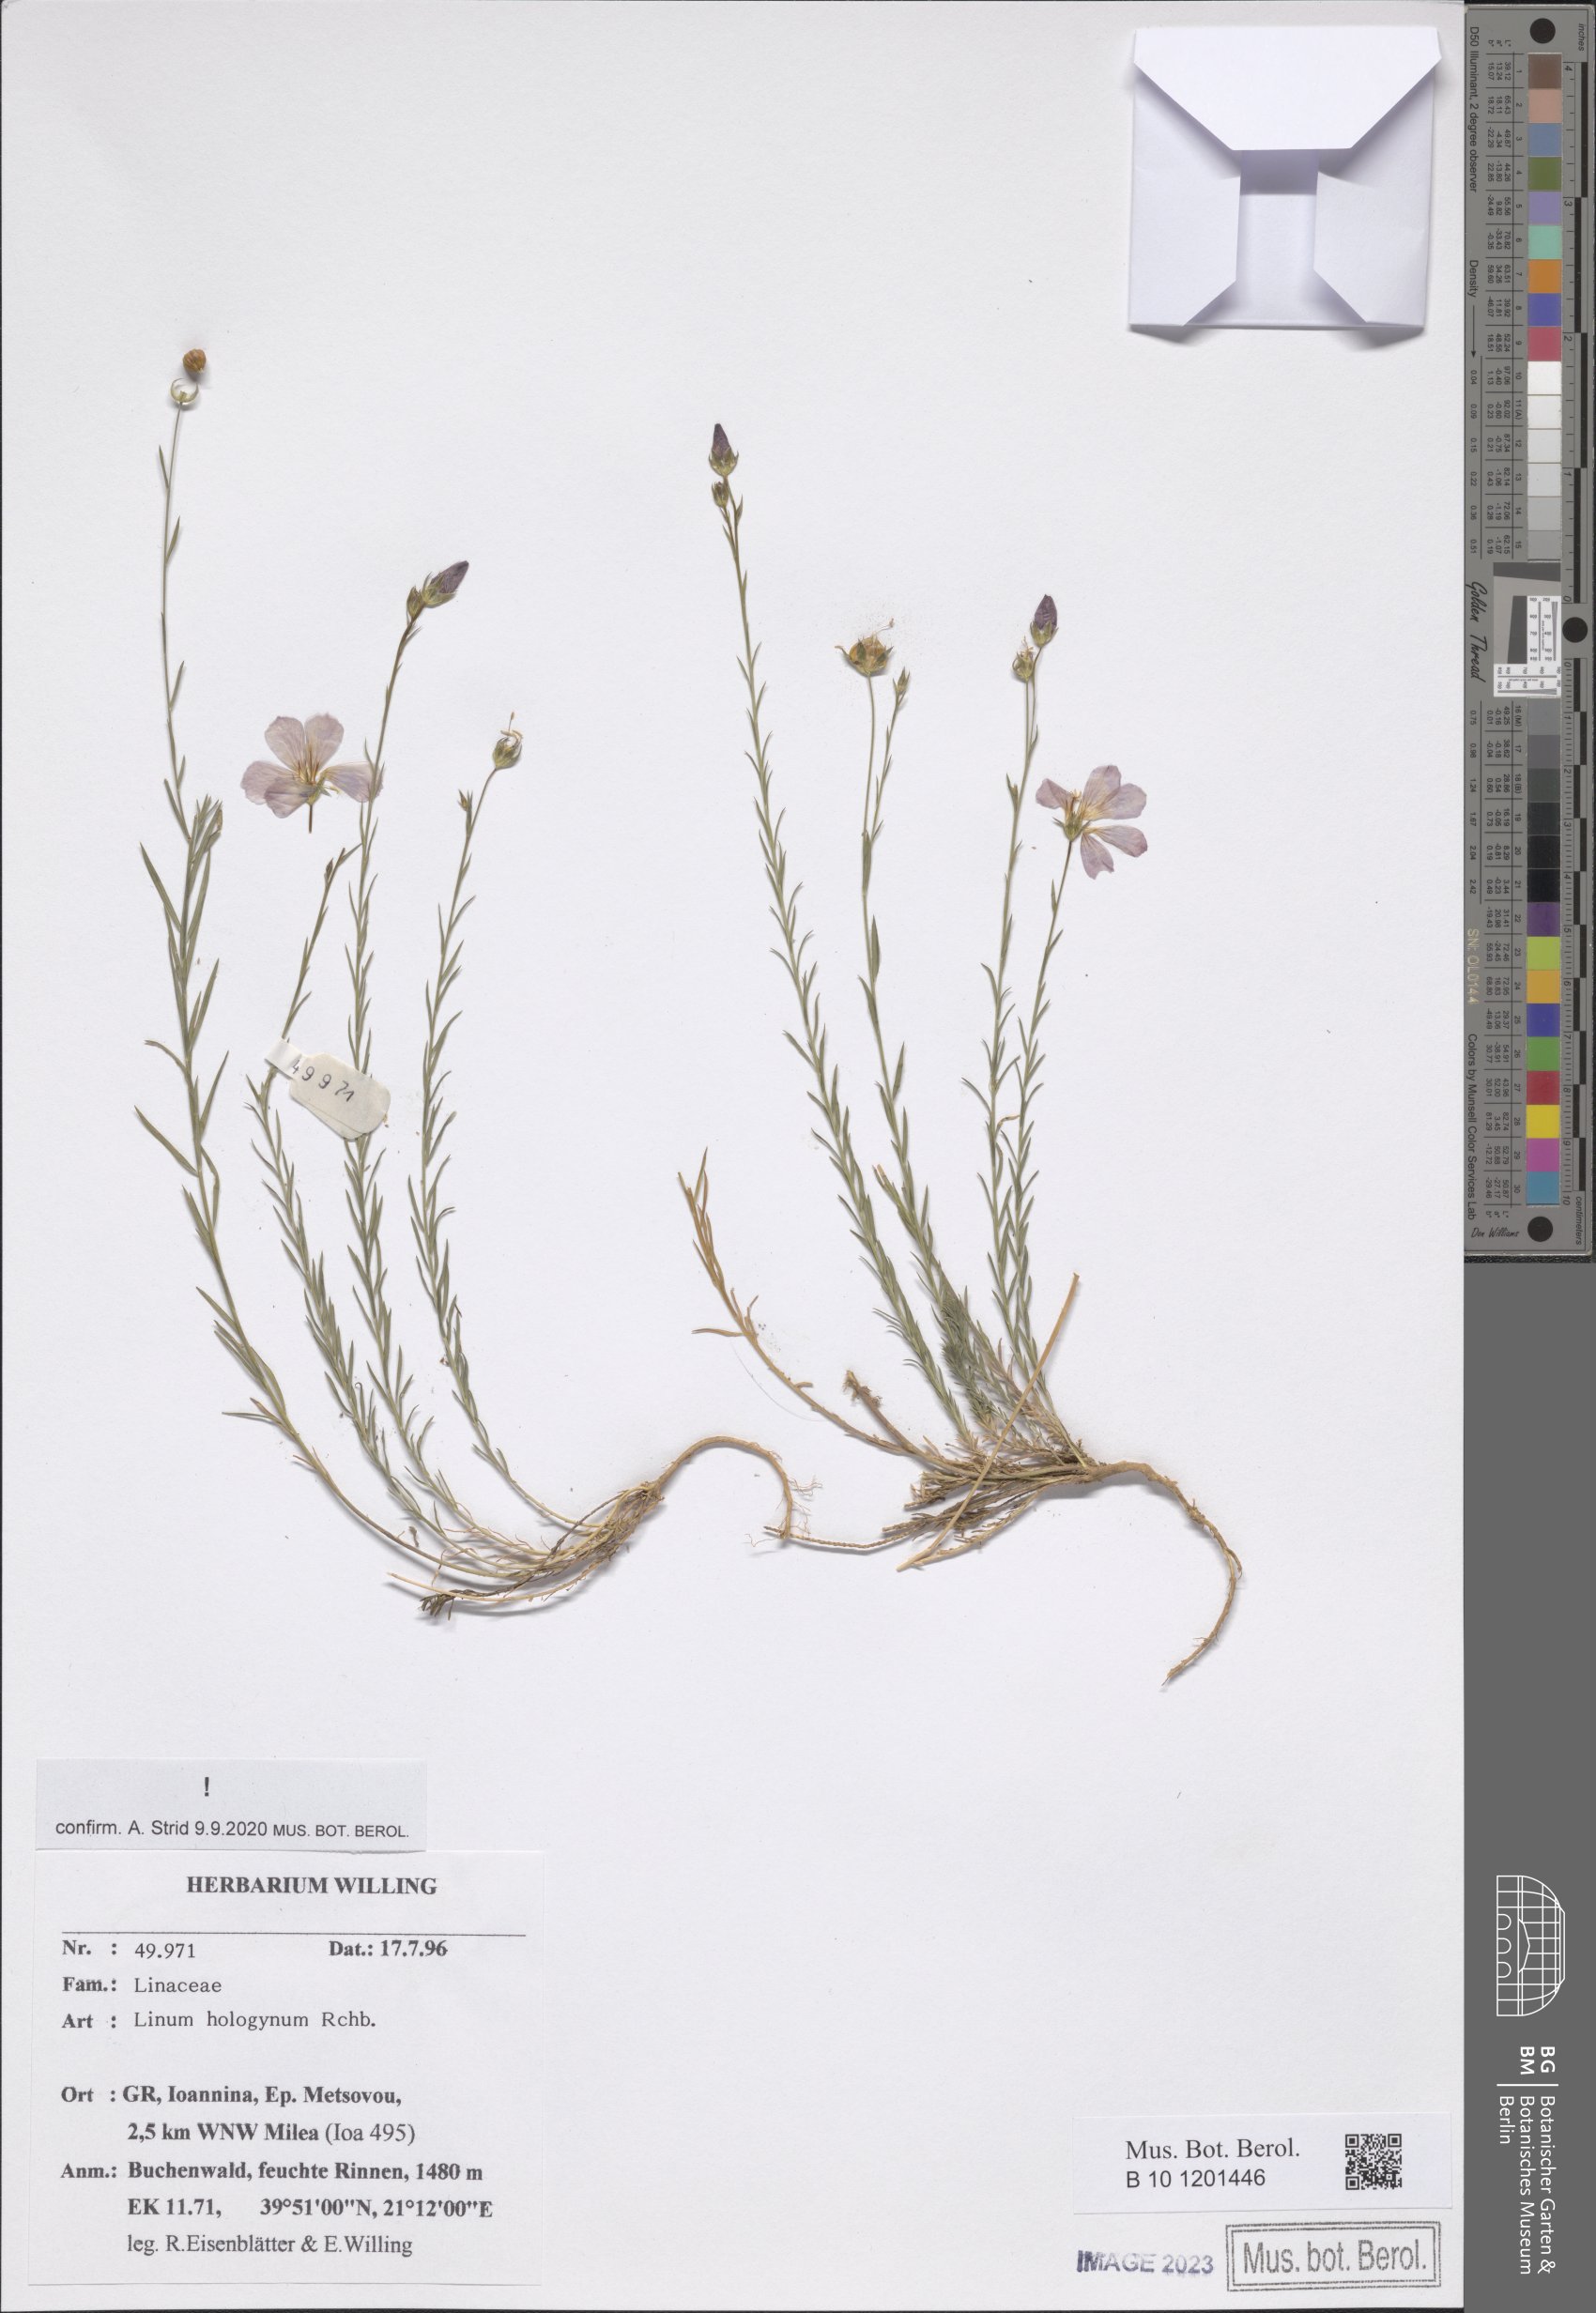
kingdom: Plantae
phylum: Tracheophyta
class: Magnoliopsida
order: Malpighiales
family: Linaceae
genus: Linum
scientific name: Linum hologynum
